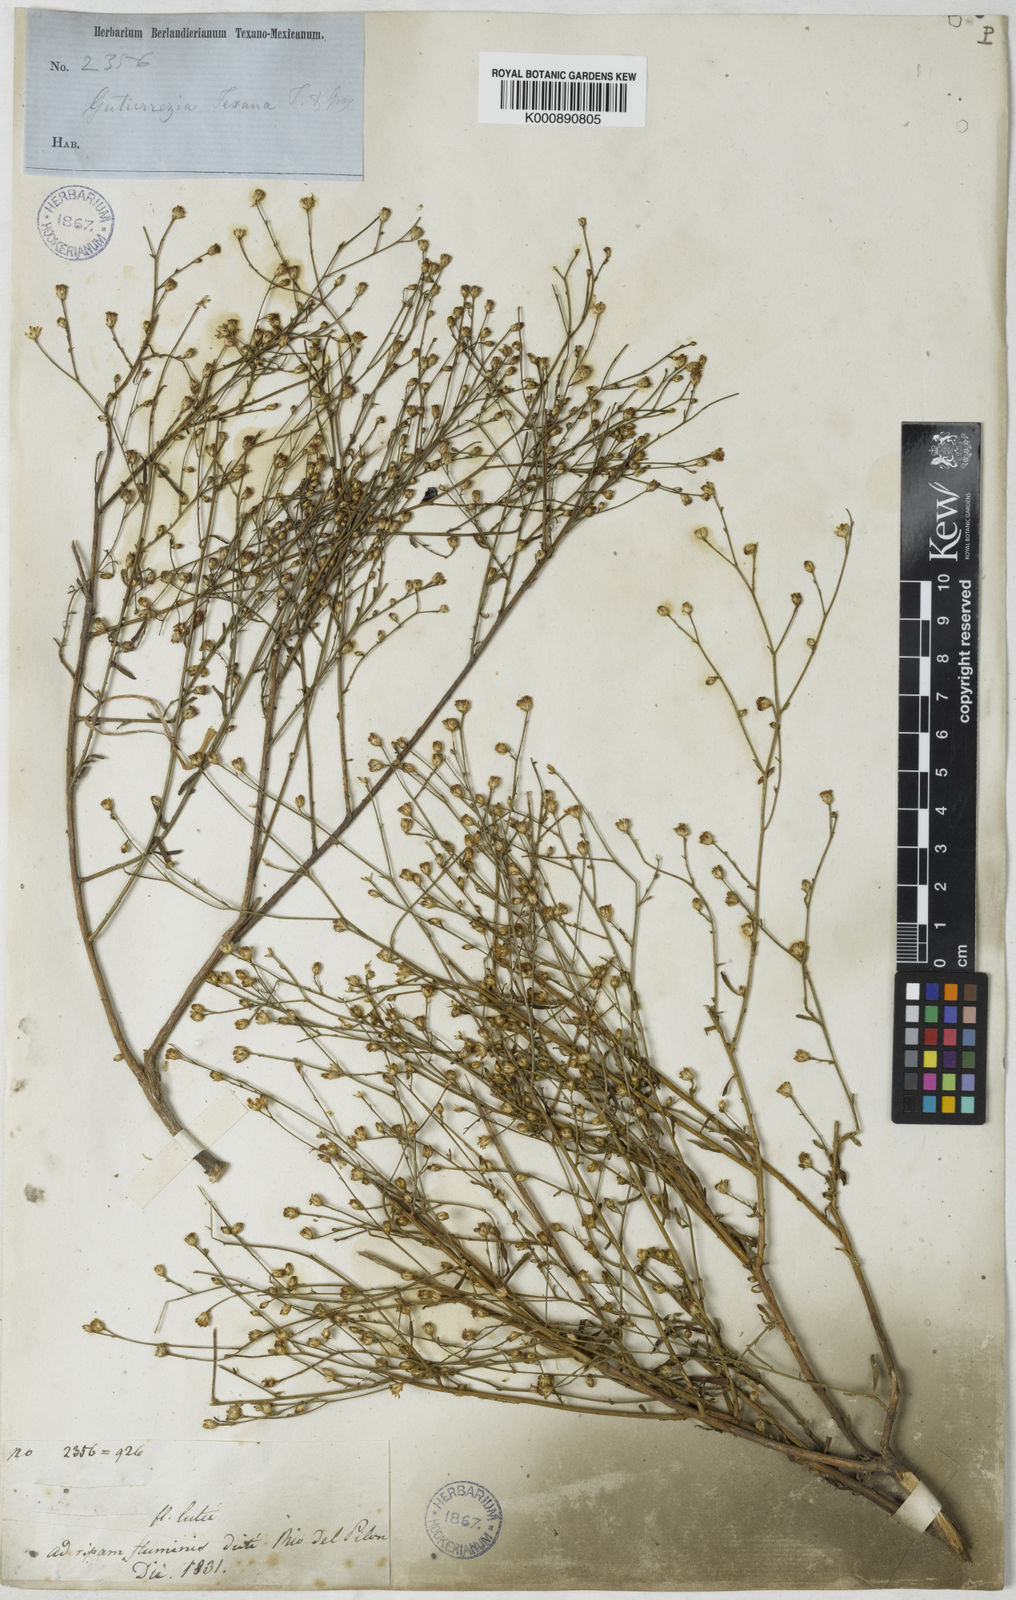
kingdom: Plantae
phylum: Tracheophyta
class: Magnoliopsida
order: Asterales
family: Asteraceae
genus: Gutierrezia
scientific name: Gutierrezia texana
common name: Texas snakeweed
